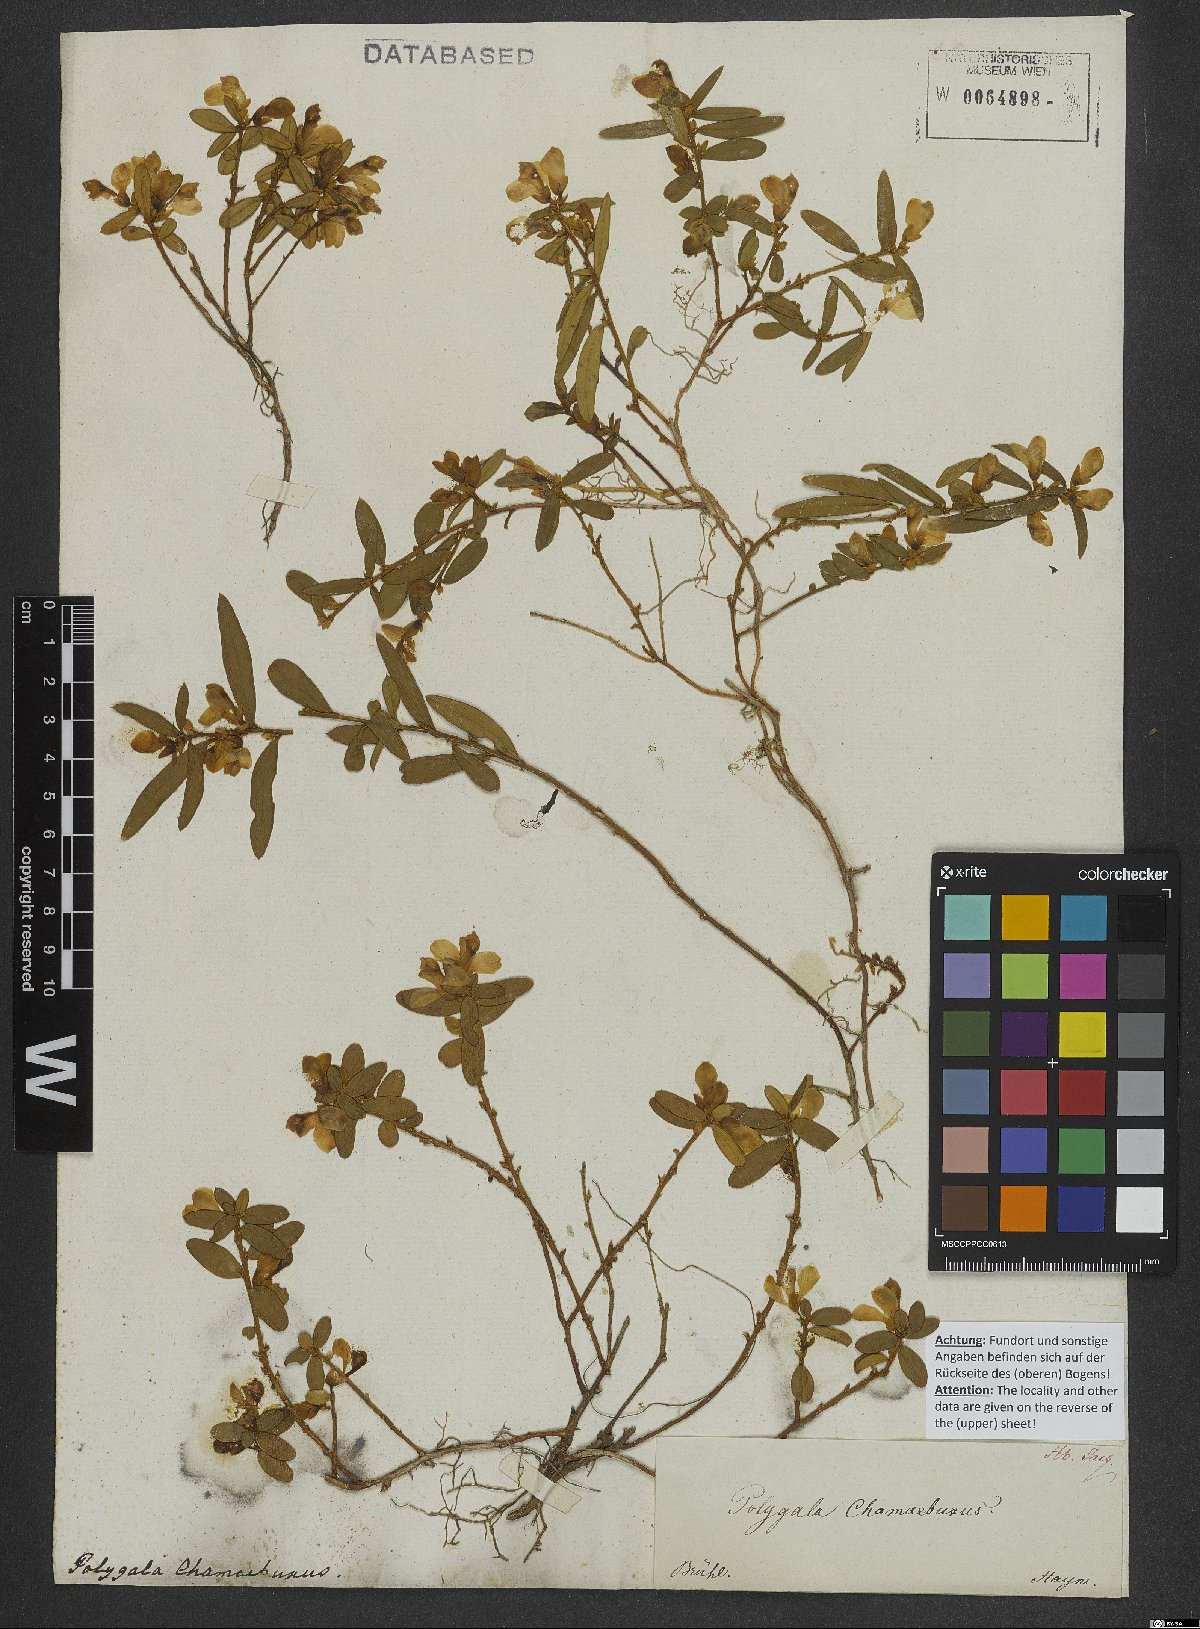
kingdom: Plantae
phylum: Tracheophyta
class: Magnoliopsida
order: Fabales
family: Polygalaceae
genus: Polygaloides
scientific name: Polygaloides chamaebuxus
